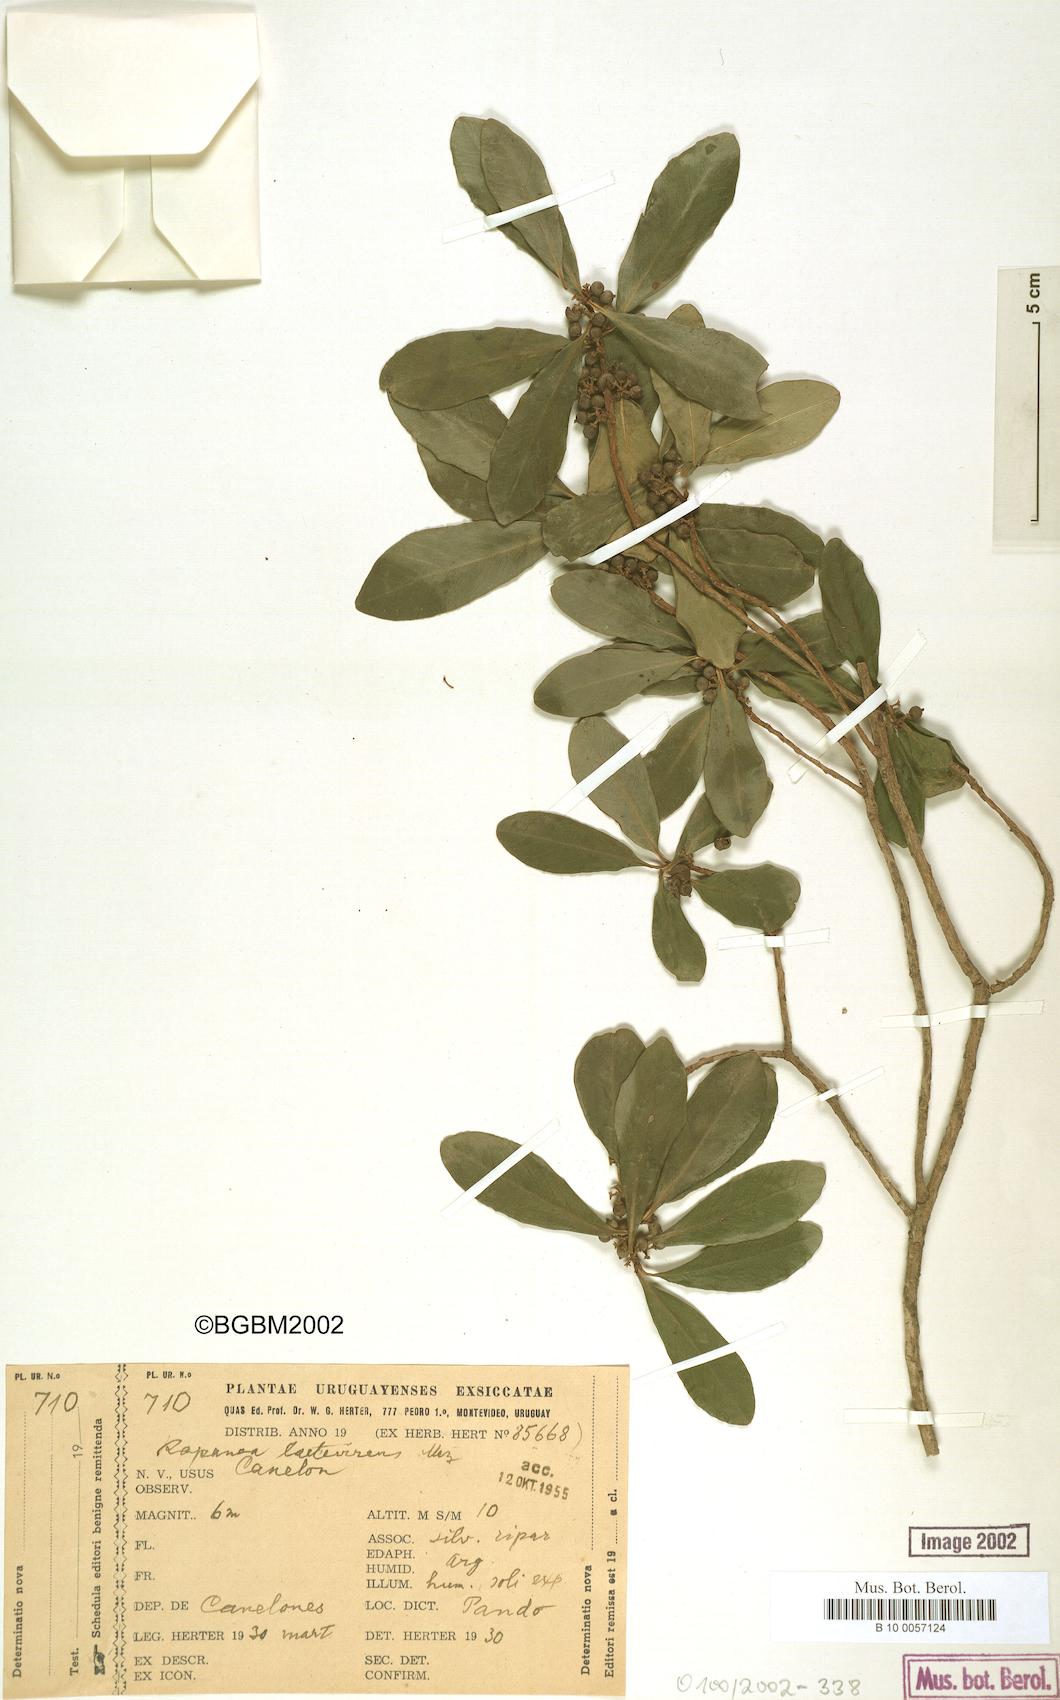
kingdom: Plantae
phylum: Tracheophyta
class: Magnoliopsida
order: Ericales
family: Primulaceae
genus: Myrsine
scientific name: Myrsine laetevirens
